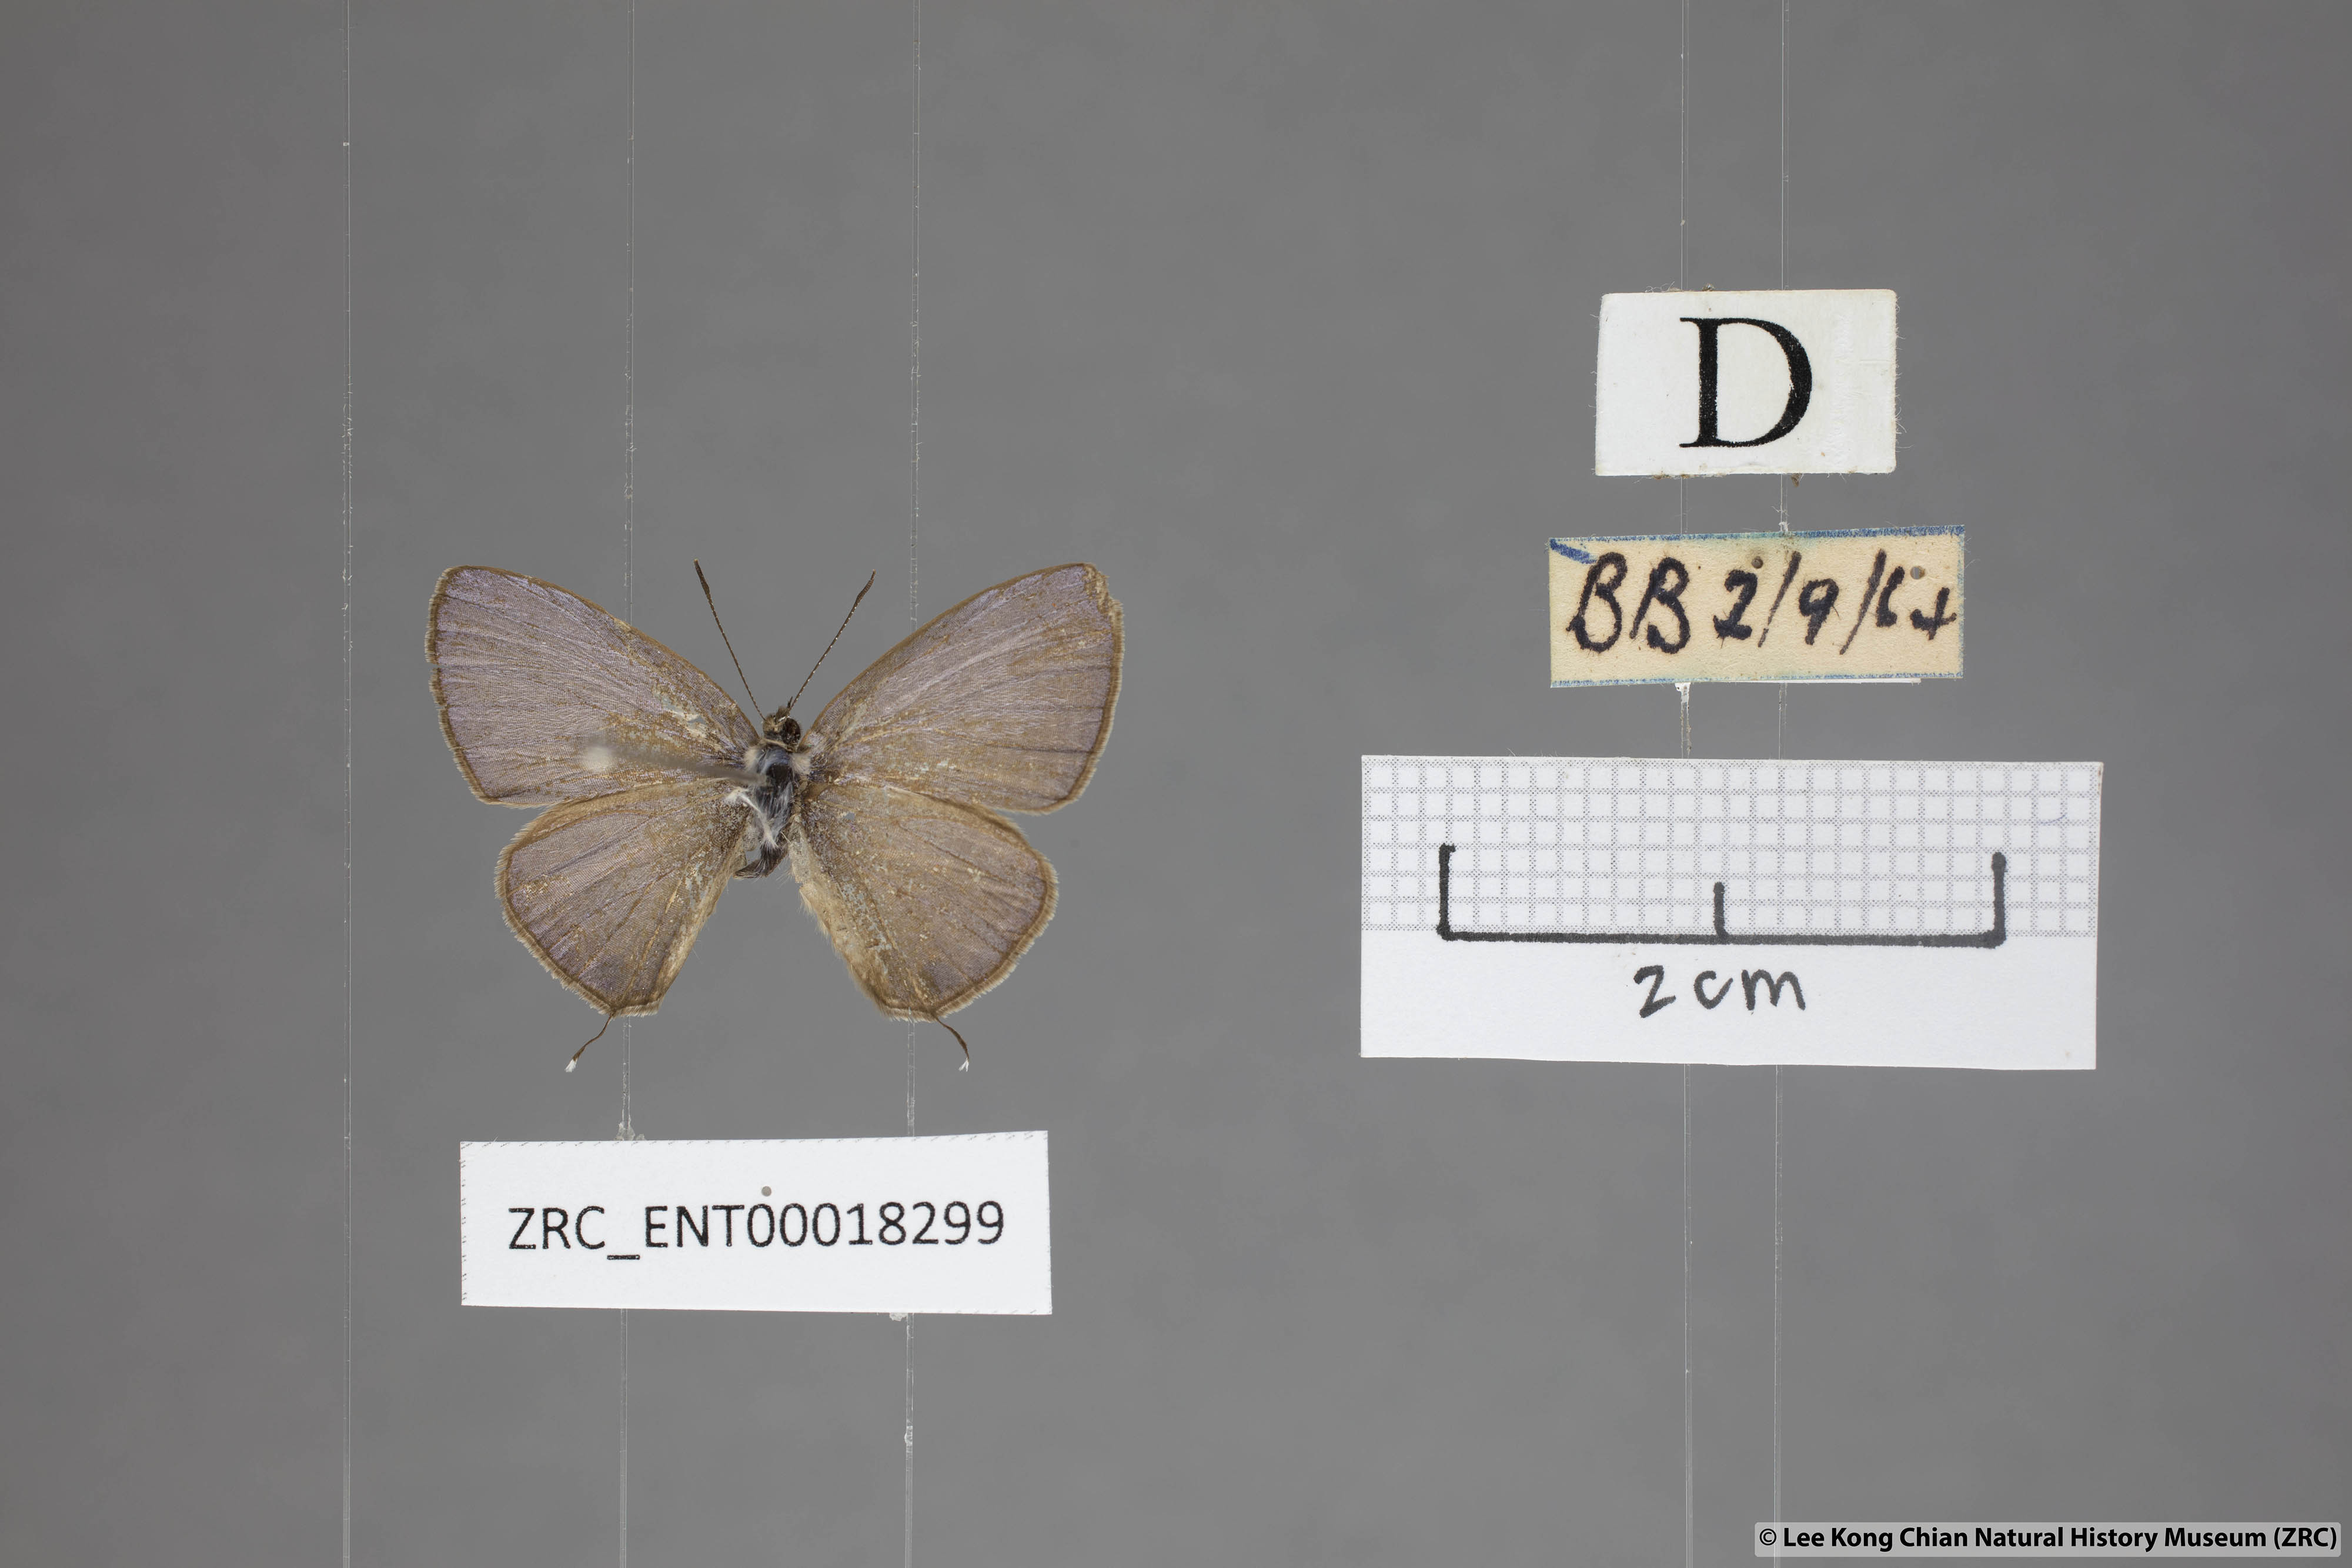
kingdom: Animalia
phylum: Arthropoda
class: Insecta
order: Lepidoptera
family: Lycaenidae
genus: Nacaduba
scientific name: Nacaduba berenice
